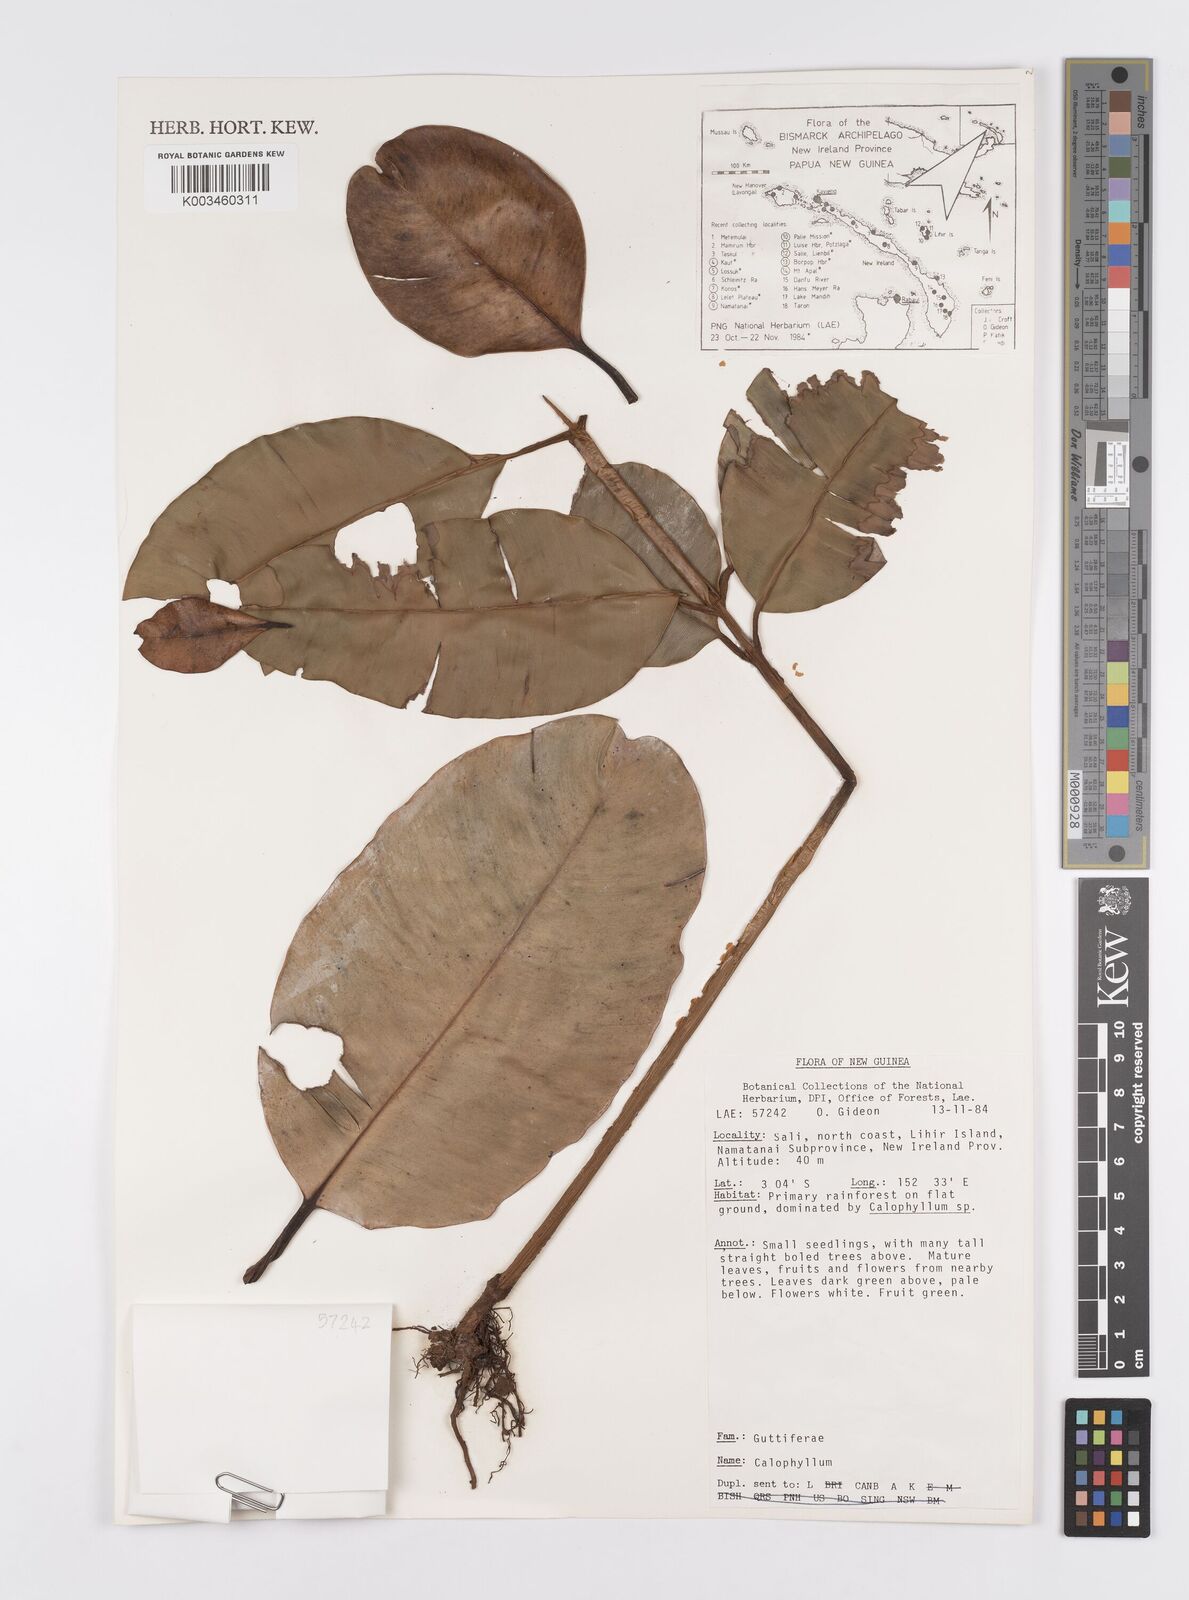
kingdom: Plantae
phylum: Tracheophyta
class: Magnoliopsida
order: Malpighiales
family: Calophyllaceae
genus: Calophyllum
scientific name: Calophyllum
